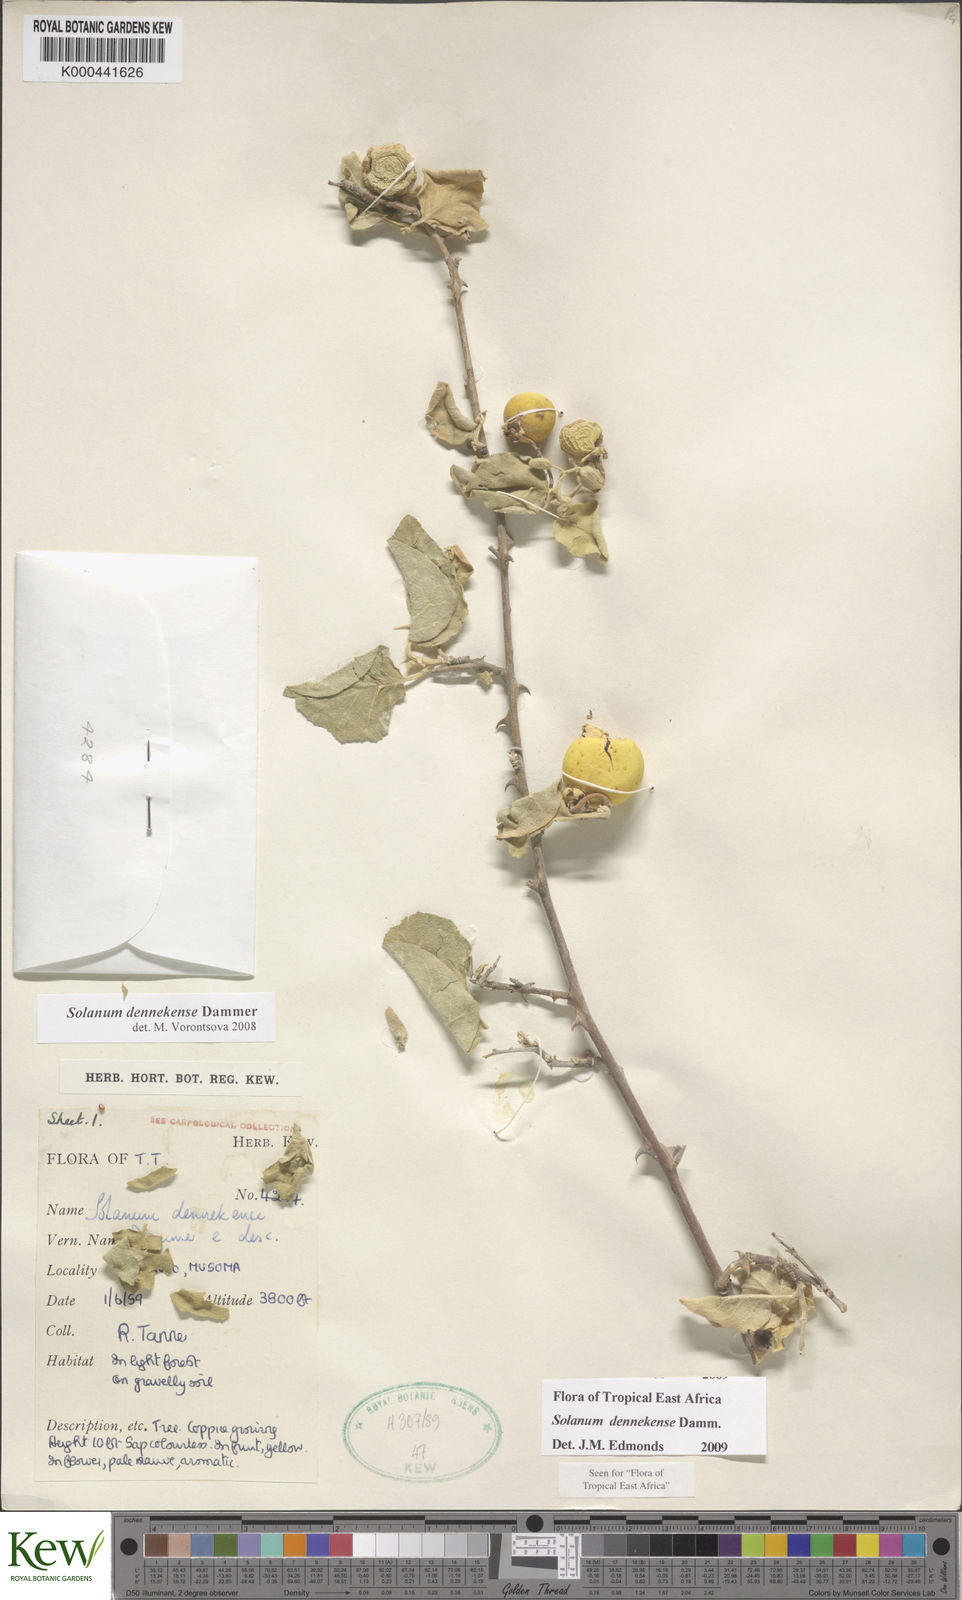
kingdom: Plantae
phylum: Tracheophyta
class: Magnoliopsida
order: Solanales
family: Solanaceae
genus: Solanum
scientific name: Solanum dennekense
